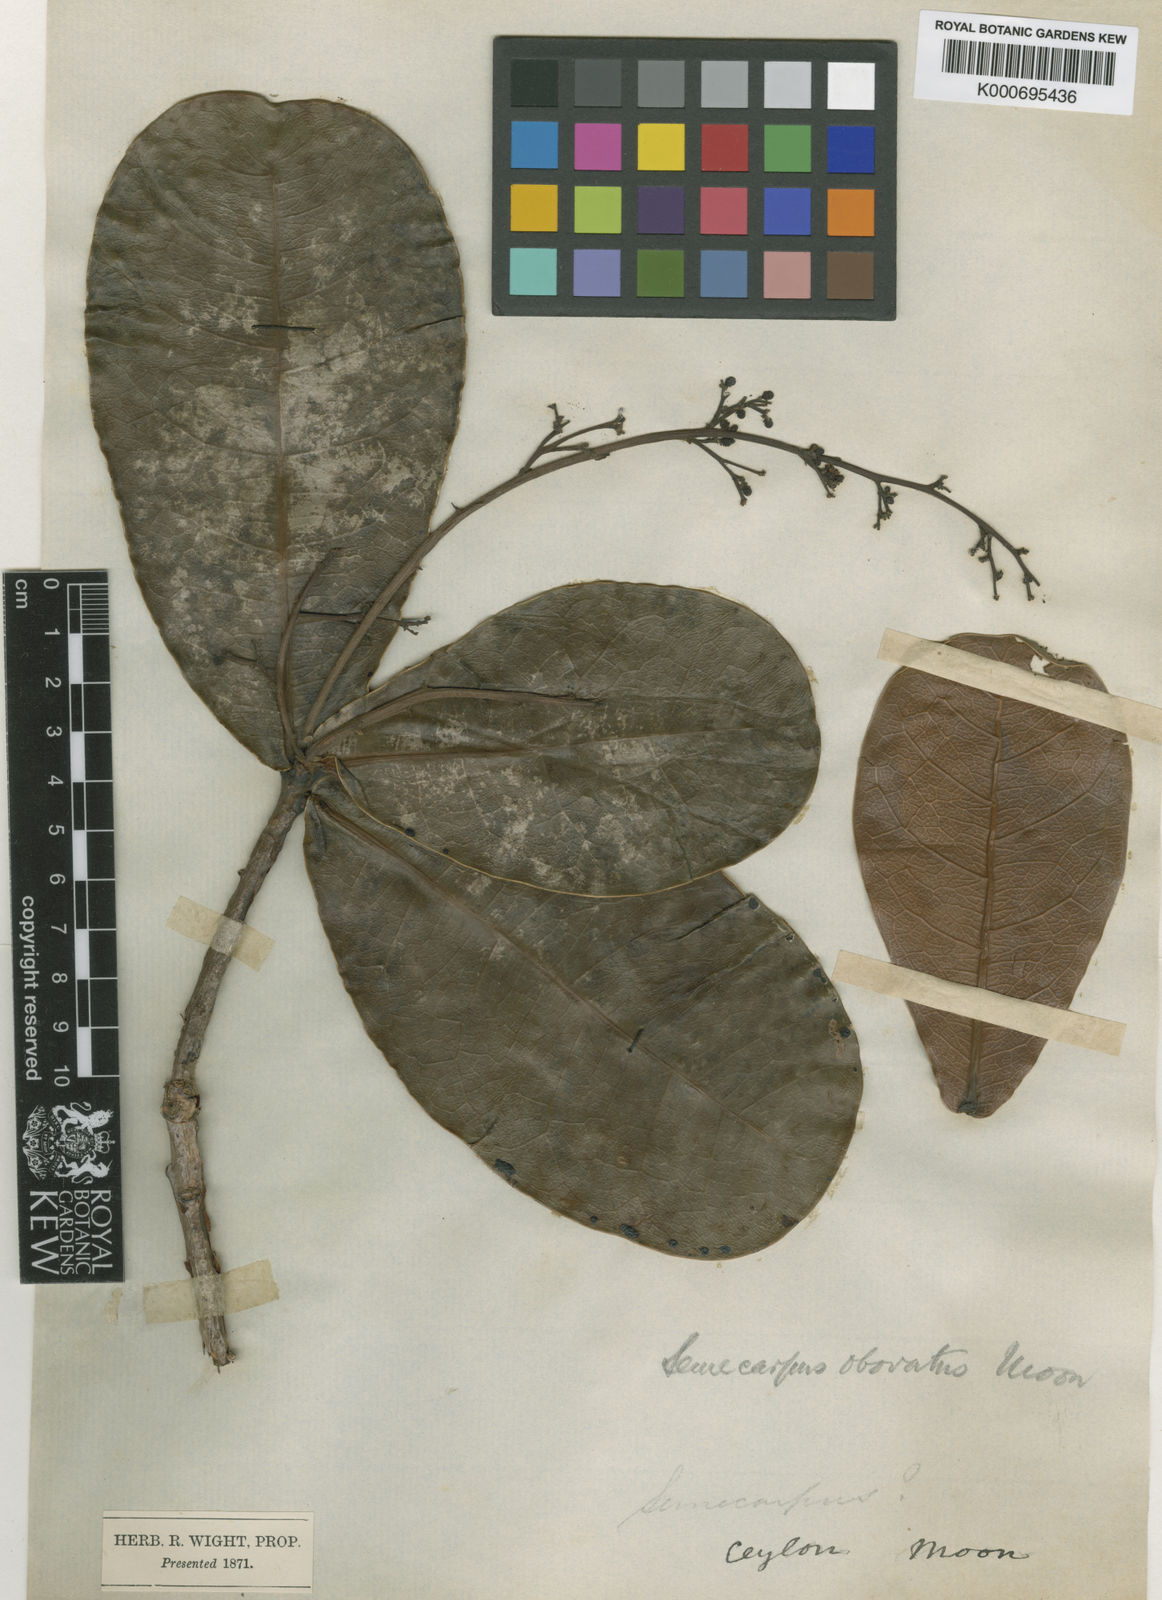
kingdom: Plantae
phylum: Tracheophyta
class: Magnoliopsida
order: Sapindales
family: Anacardiaceae
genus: Semecarpus
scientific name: Semecarpus
